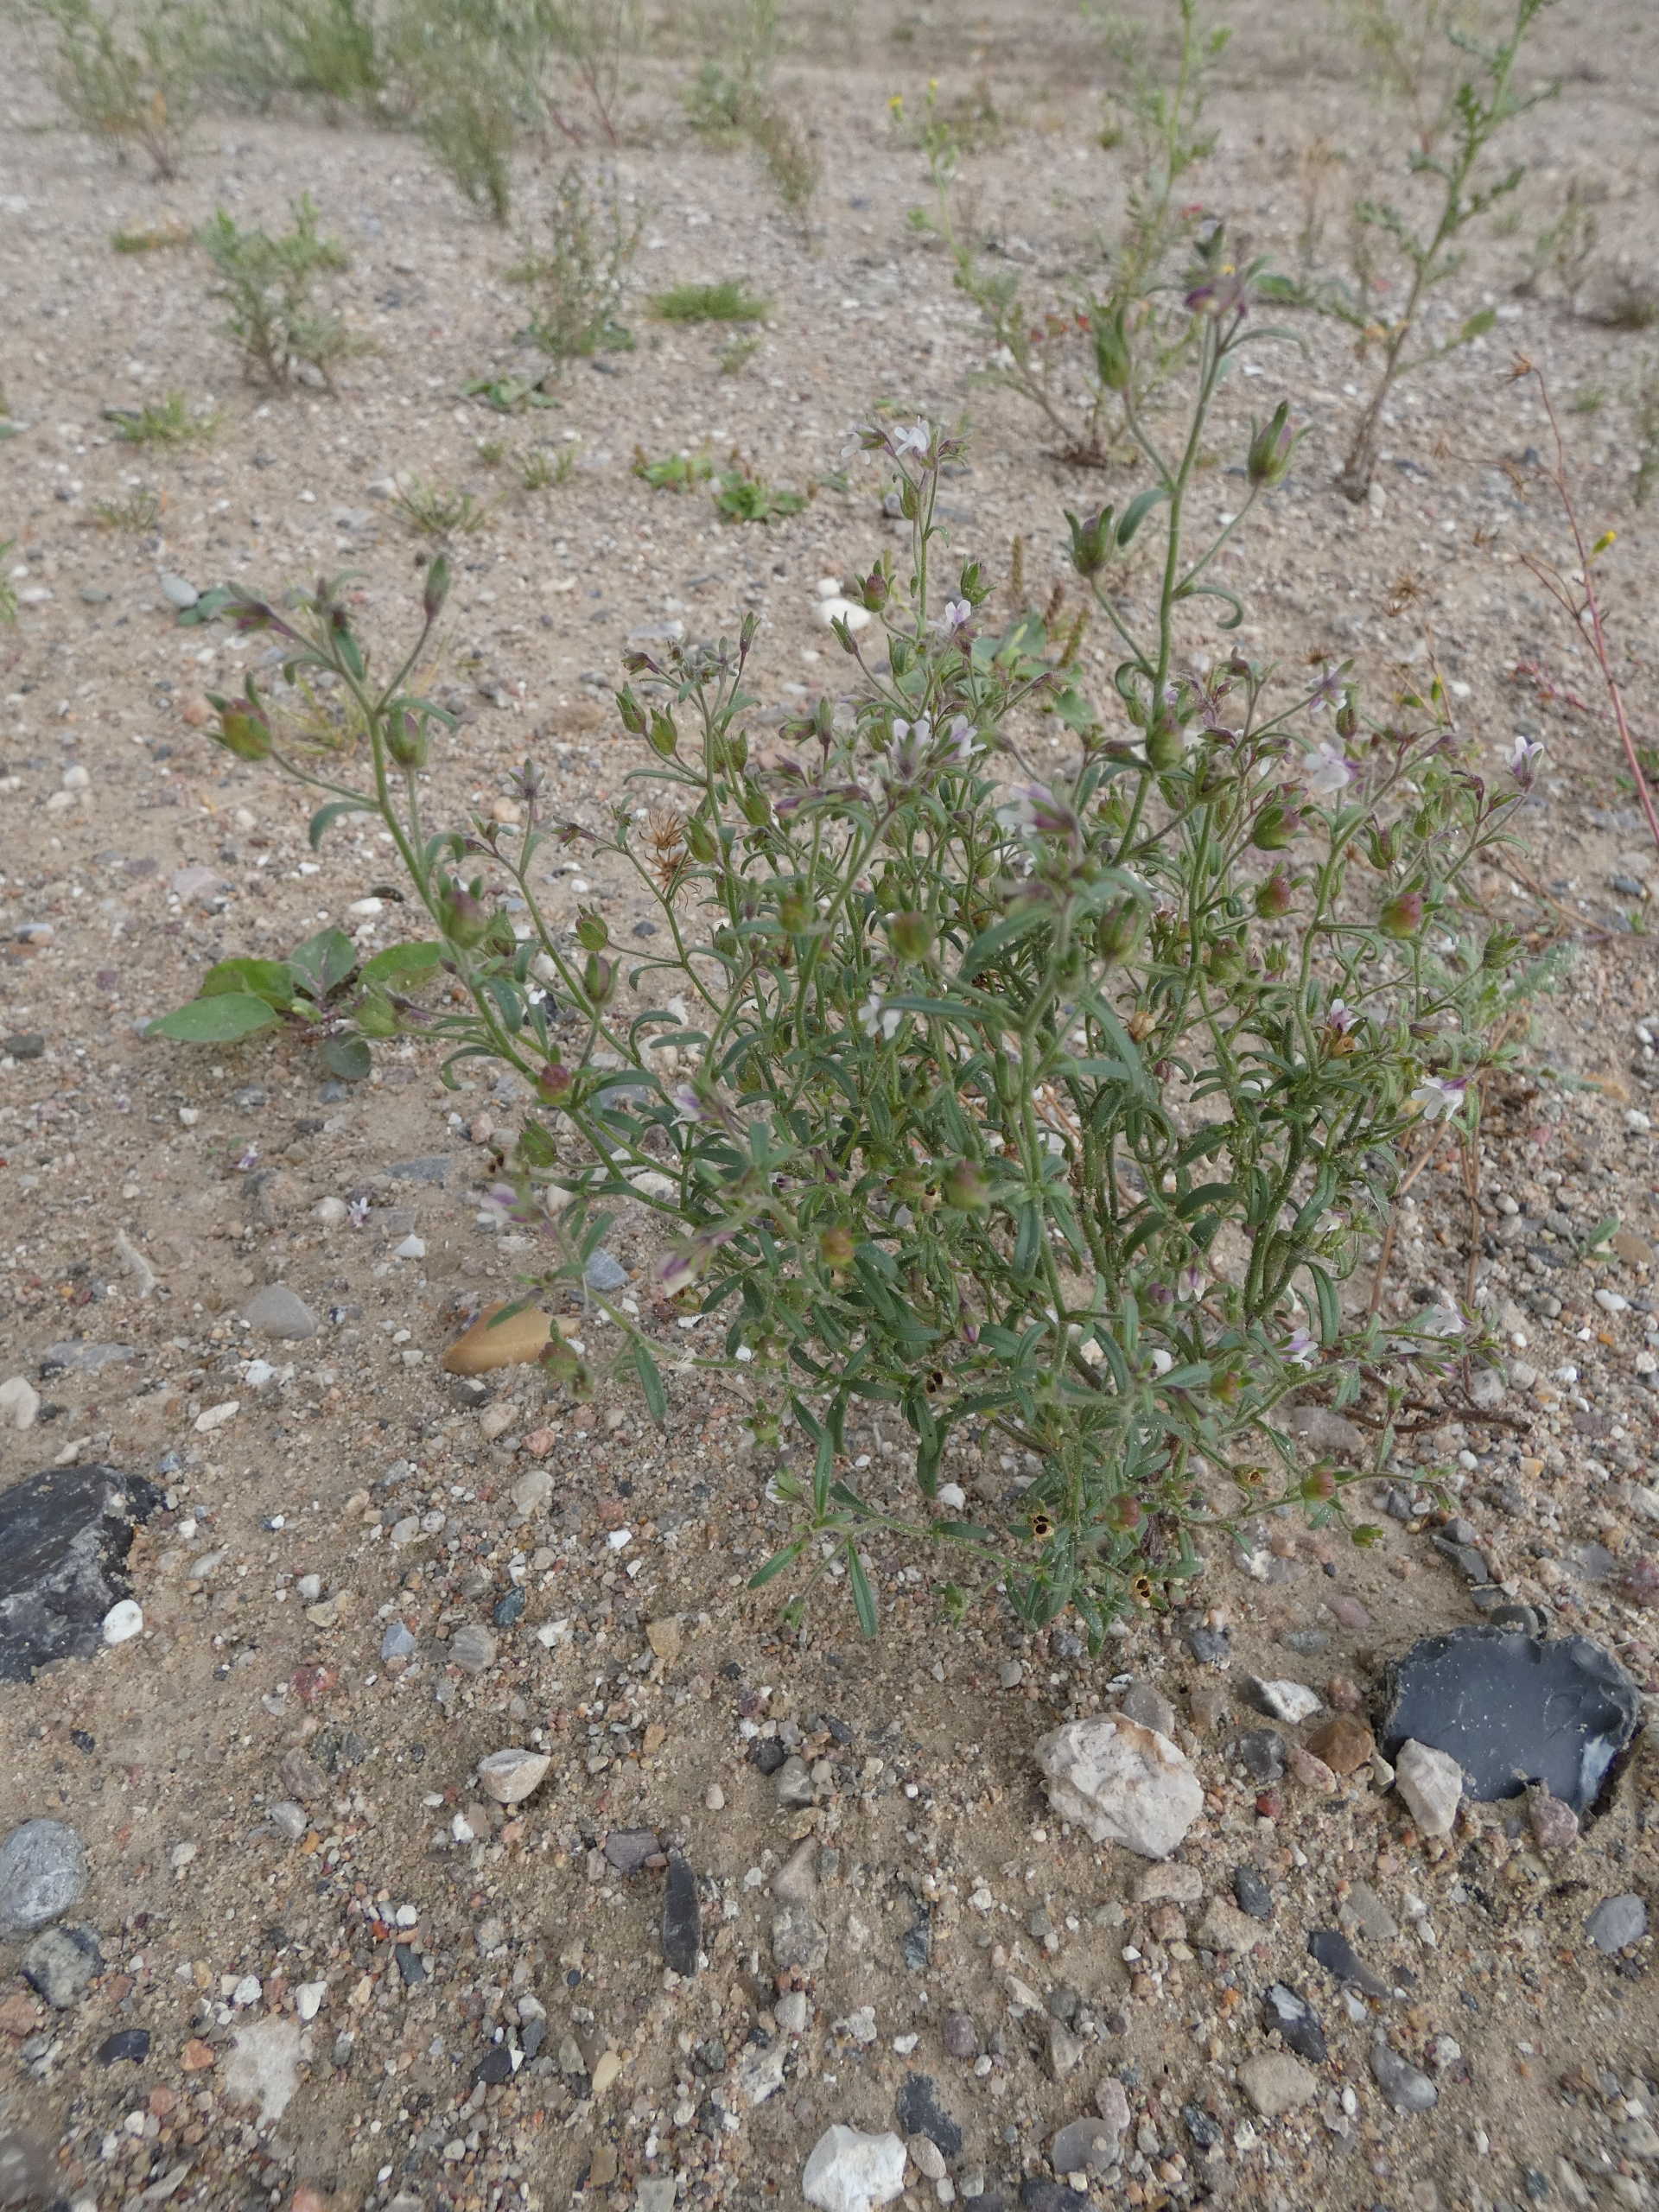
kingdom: Plantae
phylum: Tracheophyta
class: Magnoliopsida
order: Lamiales
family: Plantaginaceae
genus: Chaenorhinum
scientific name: Chaenorhinum minus
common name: Liden torskemund
